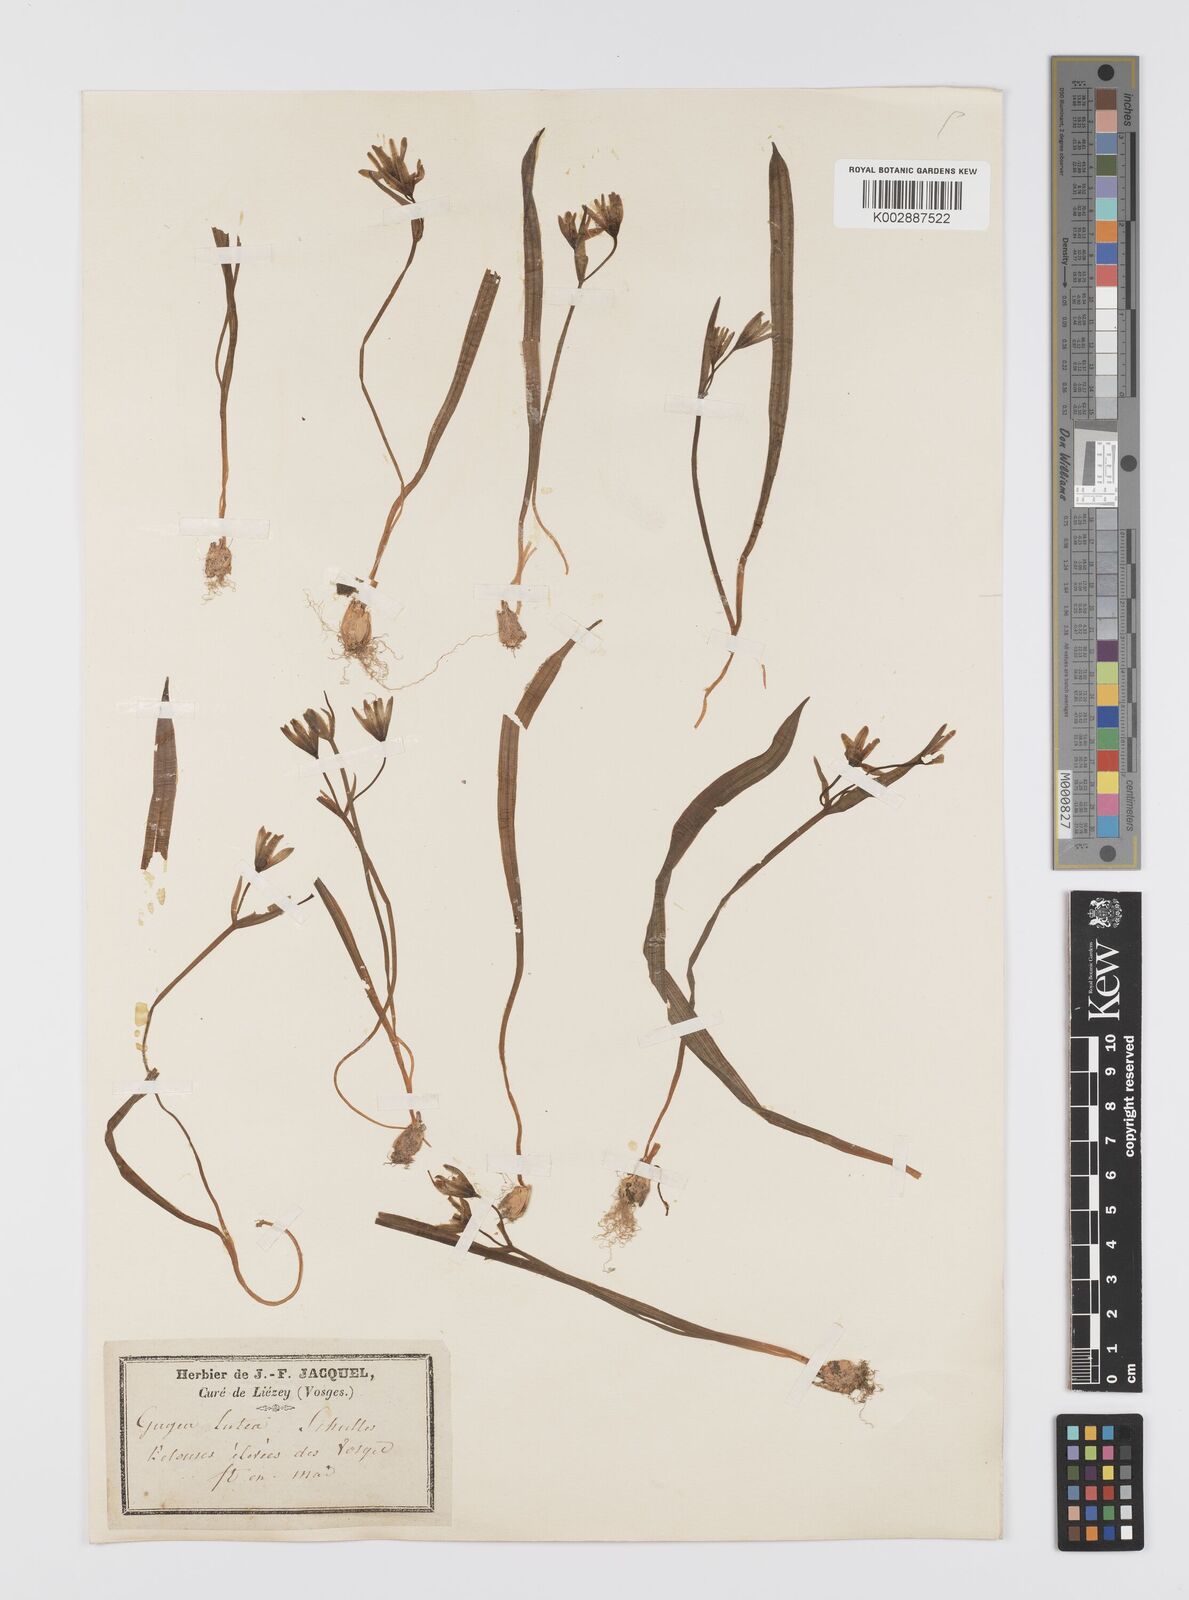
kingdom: Plantae
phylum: Tracheophyta
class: Liliopsida
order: Liliales
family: Liliaceae
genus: Gagea
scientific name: Gagea lutea
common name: Yellow star-of-bethlehem
